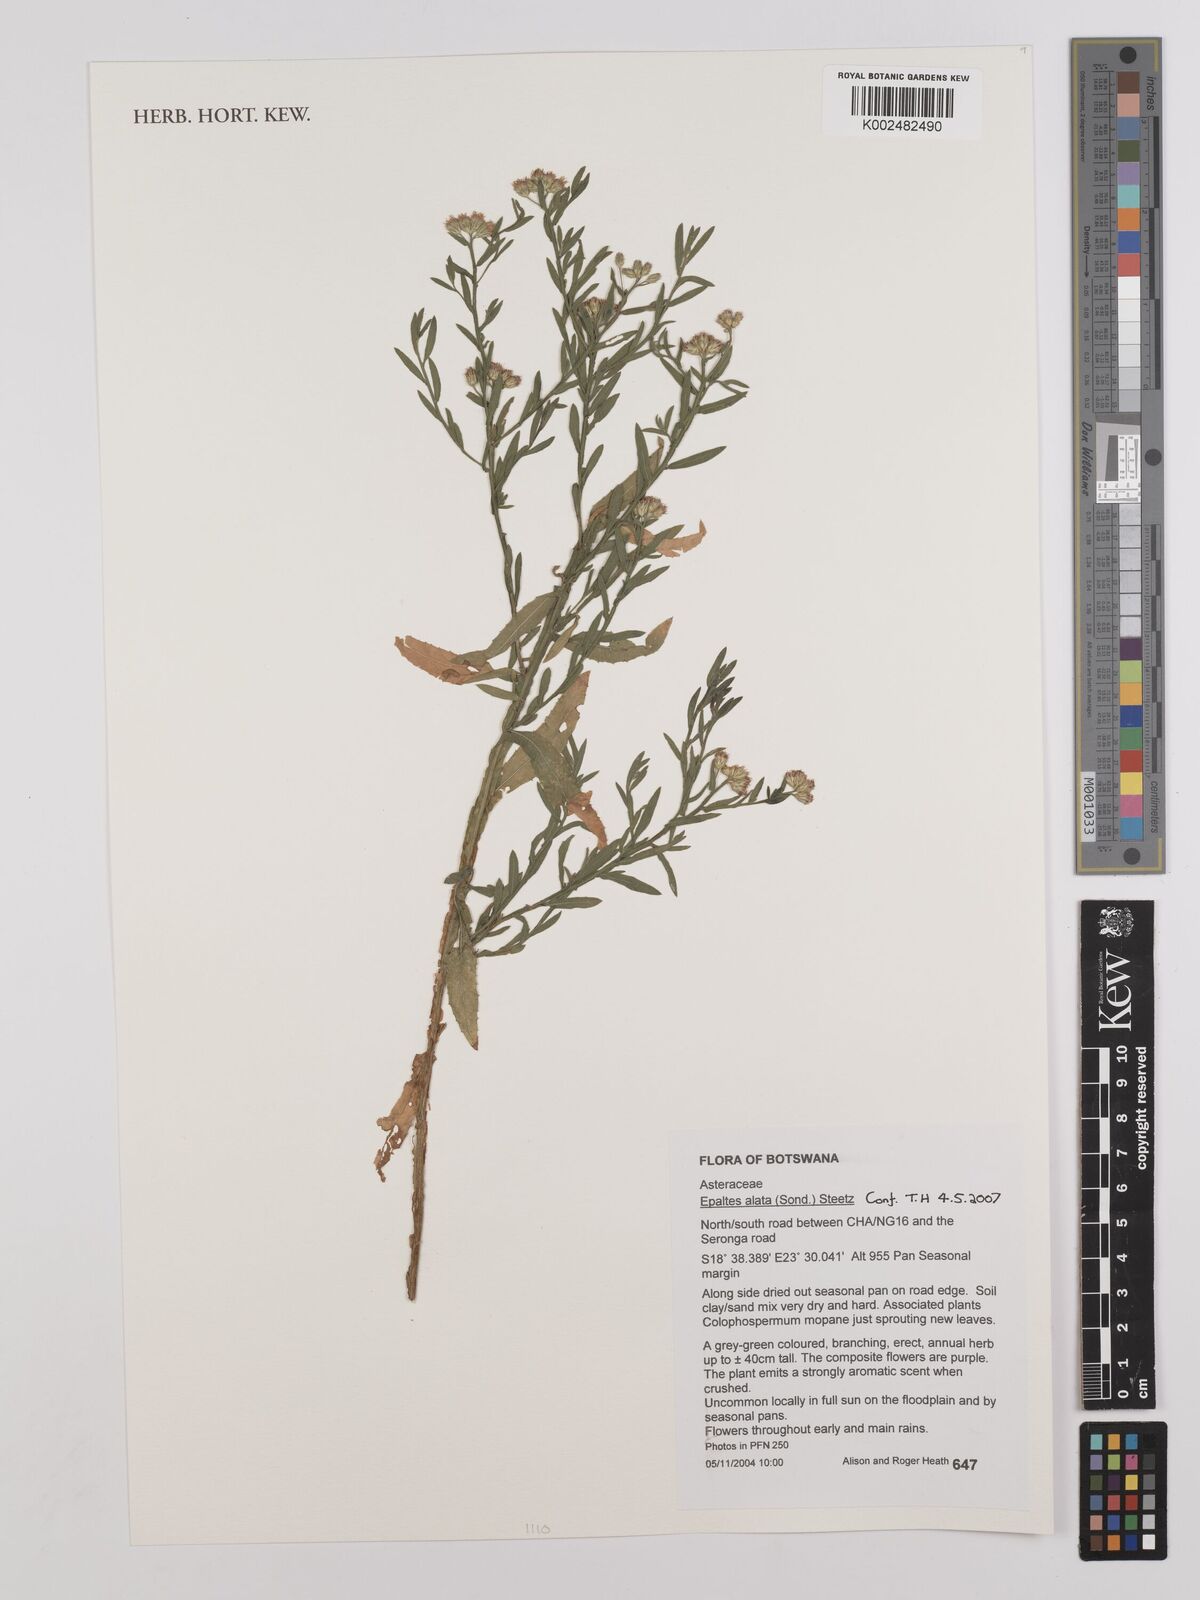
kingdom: Plantae
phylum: Tracheophyta
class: Magnoliopsida
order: Asterales
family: Asteraceae
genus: Litogyne
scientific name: Litogyne gariepina
